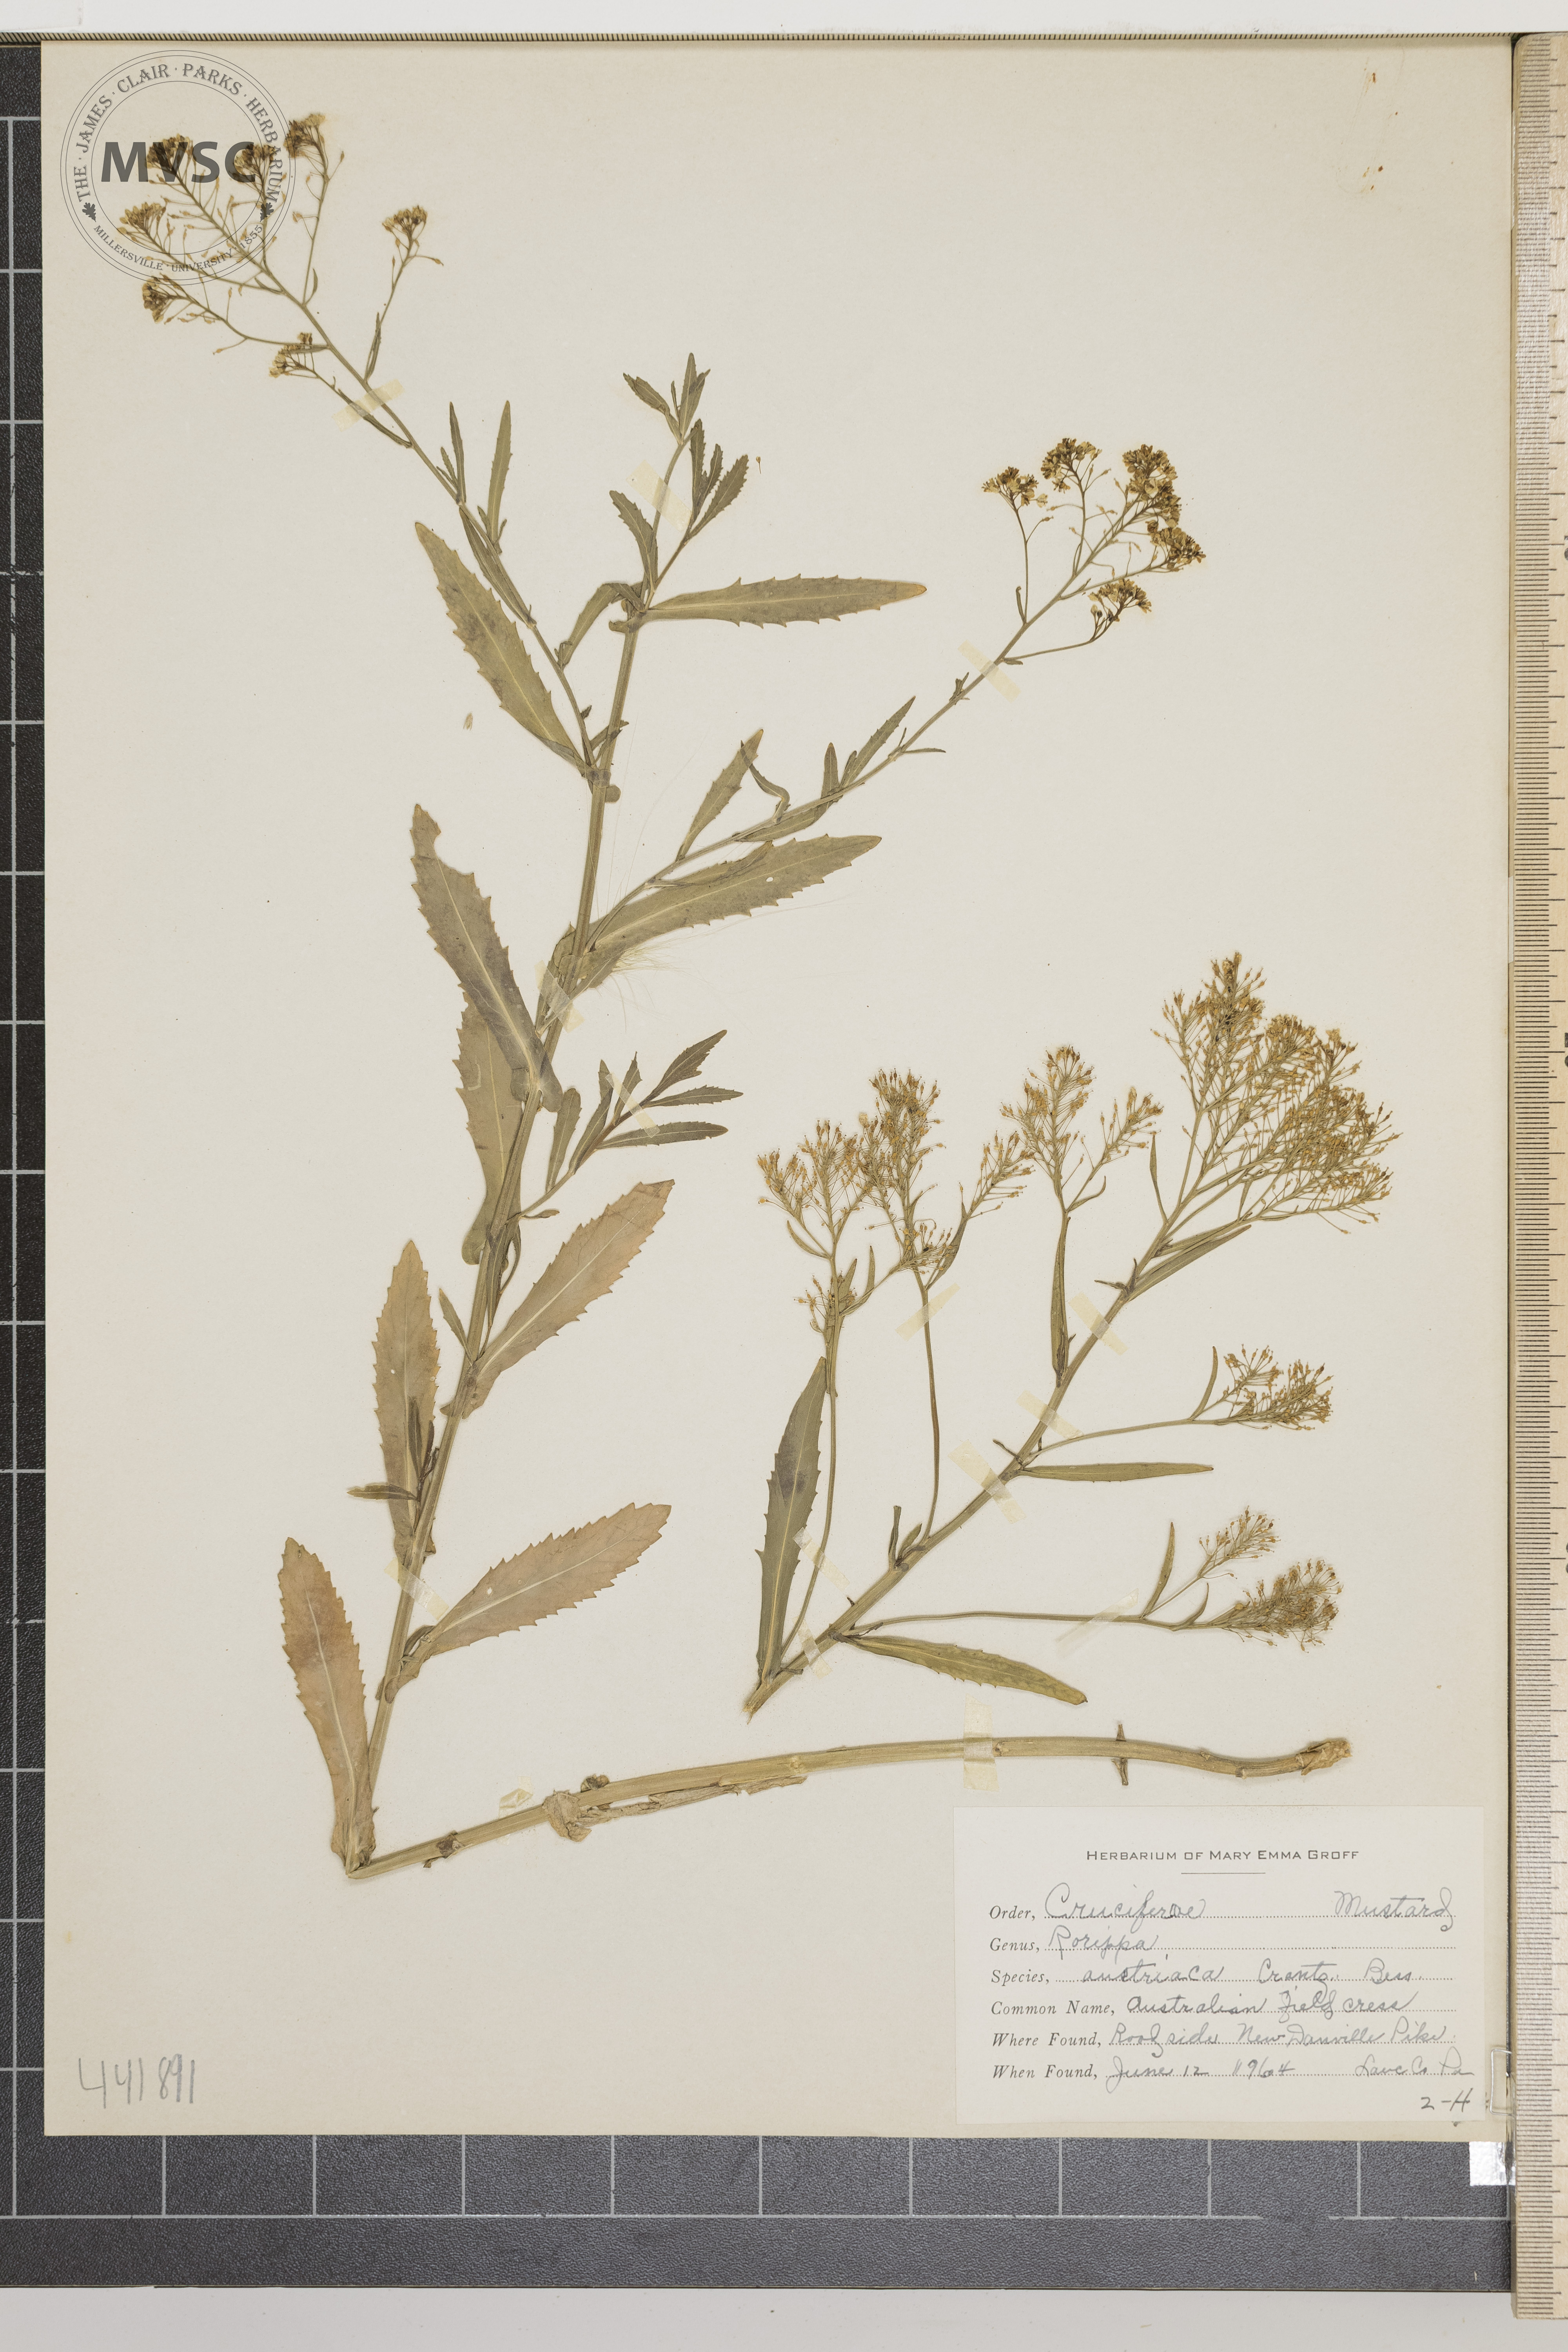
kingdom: Plantae
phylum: Tracheophyta
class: Magnoliopsida
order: Brassicales
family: Brassicaceae
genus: Rorippa
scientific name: Rorippa austriaca
